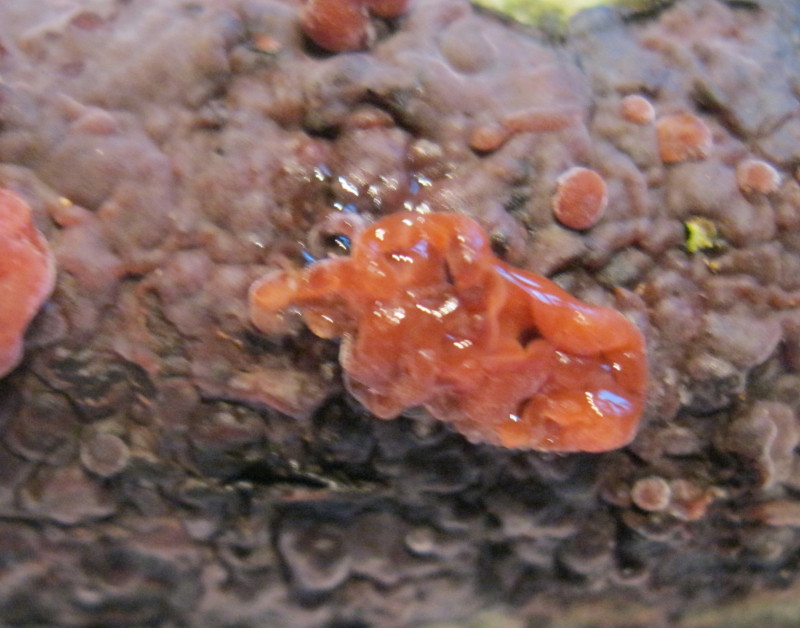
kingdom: Fungi
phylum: Basidiomycota
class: Pucciniomycetes
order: Platygloeales
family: Platygloeaceae
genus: Platygloea
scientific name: Platygloea
